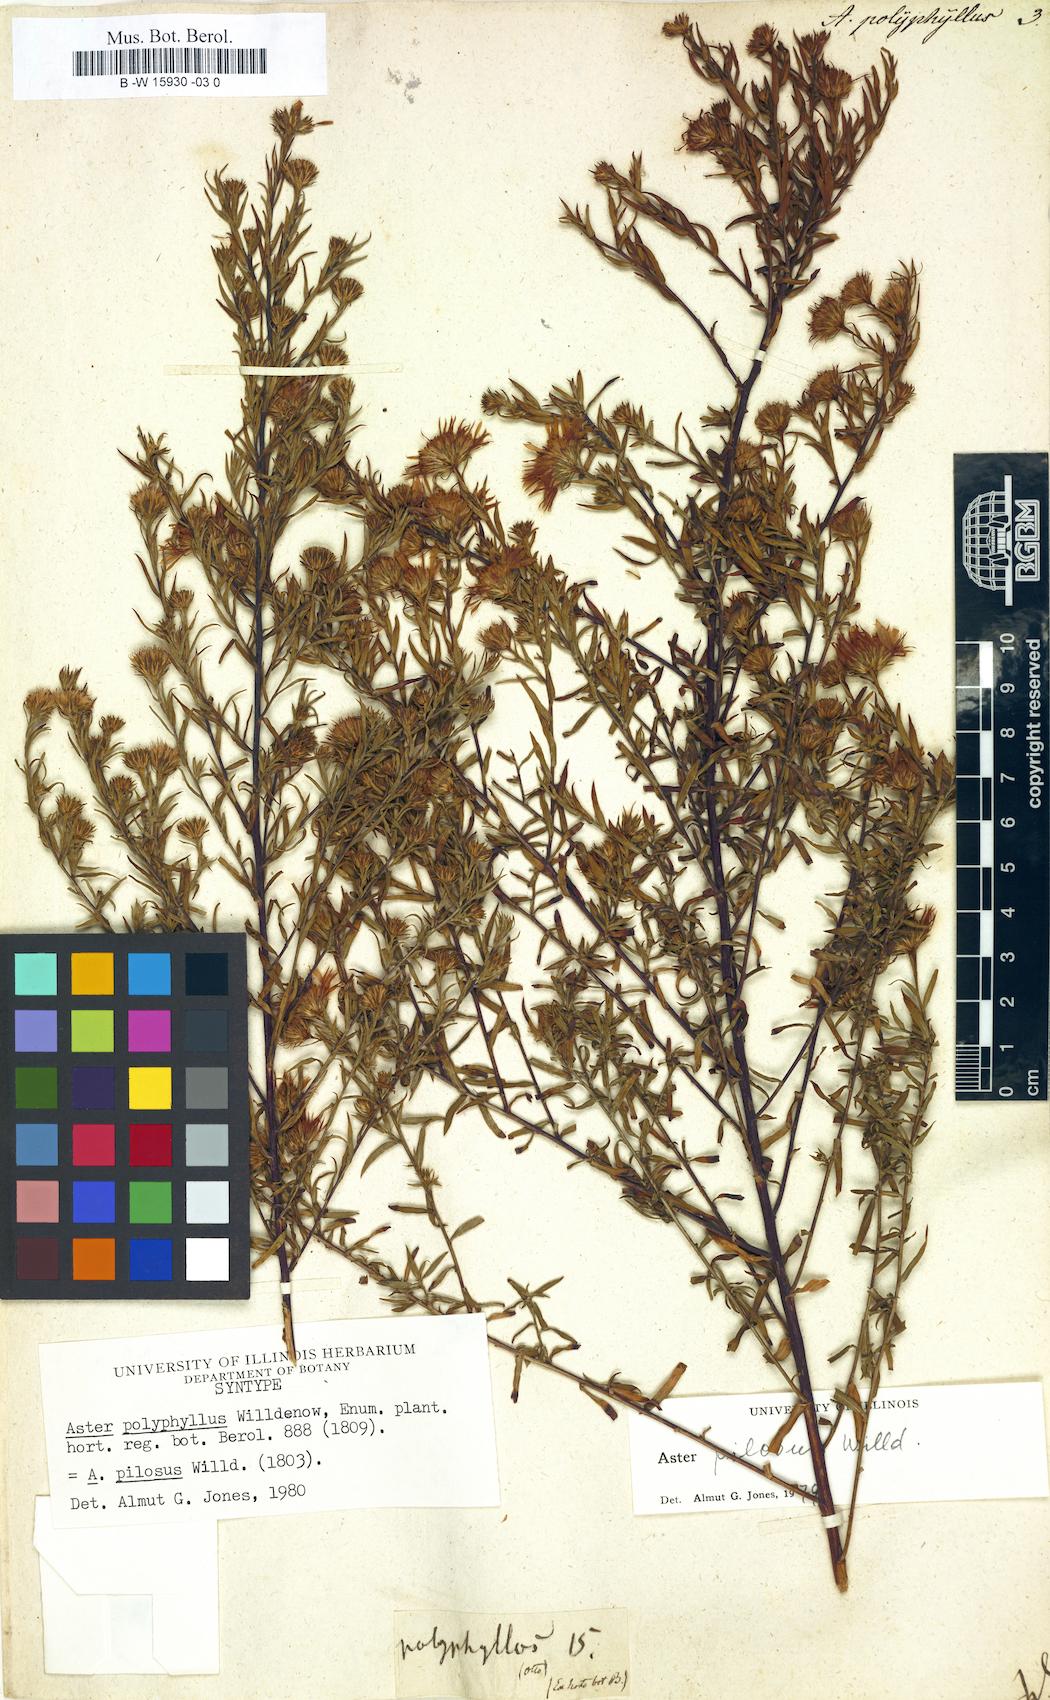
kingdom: Plantae
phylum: Tracheophyta
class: Magnoliopsida
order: Asterales
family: Asteraceae
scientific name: Asteraceae
